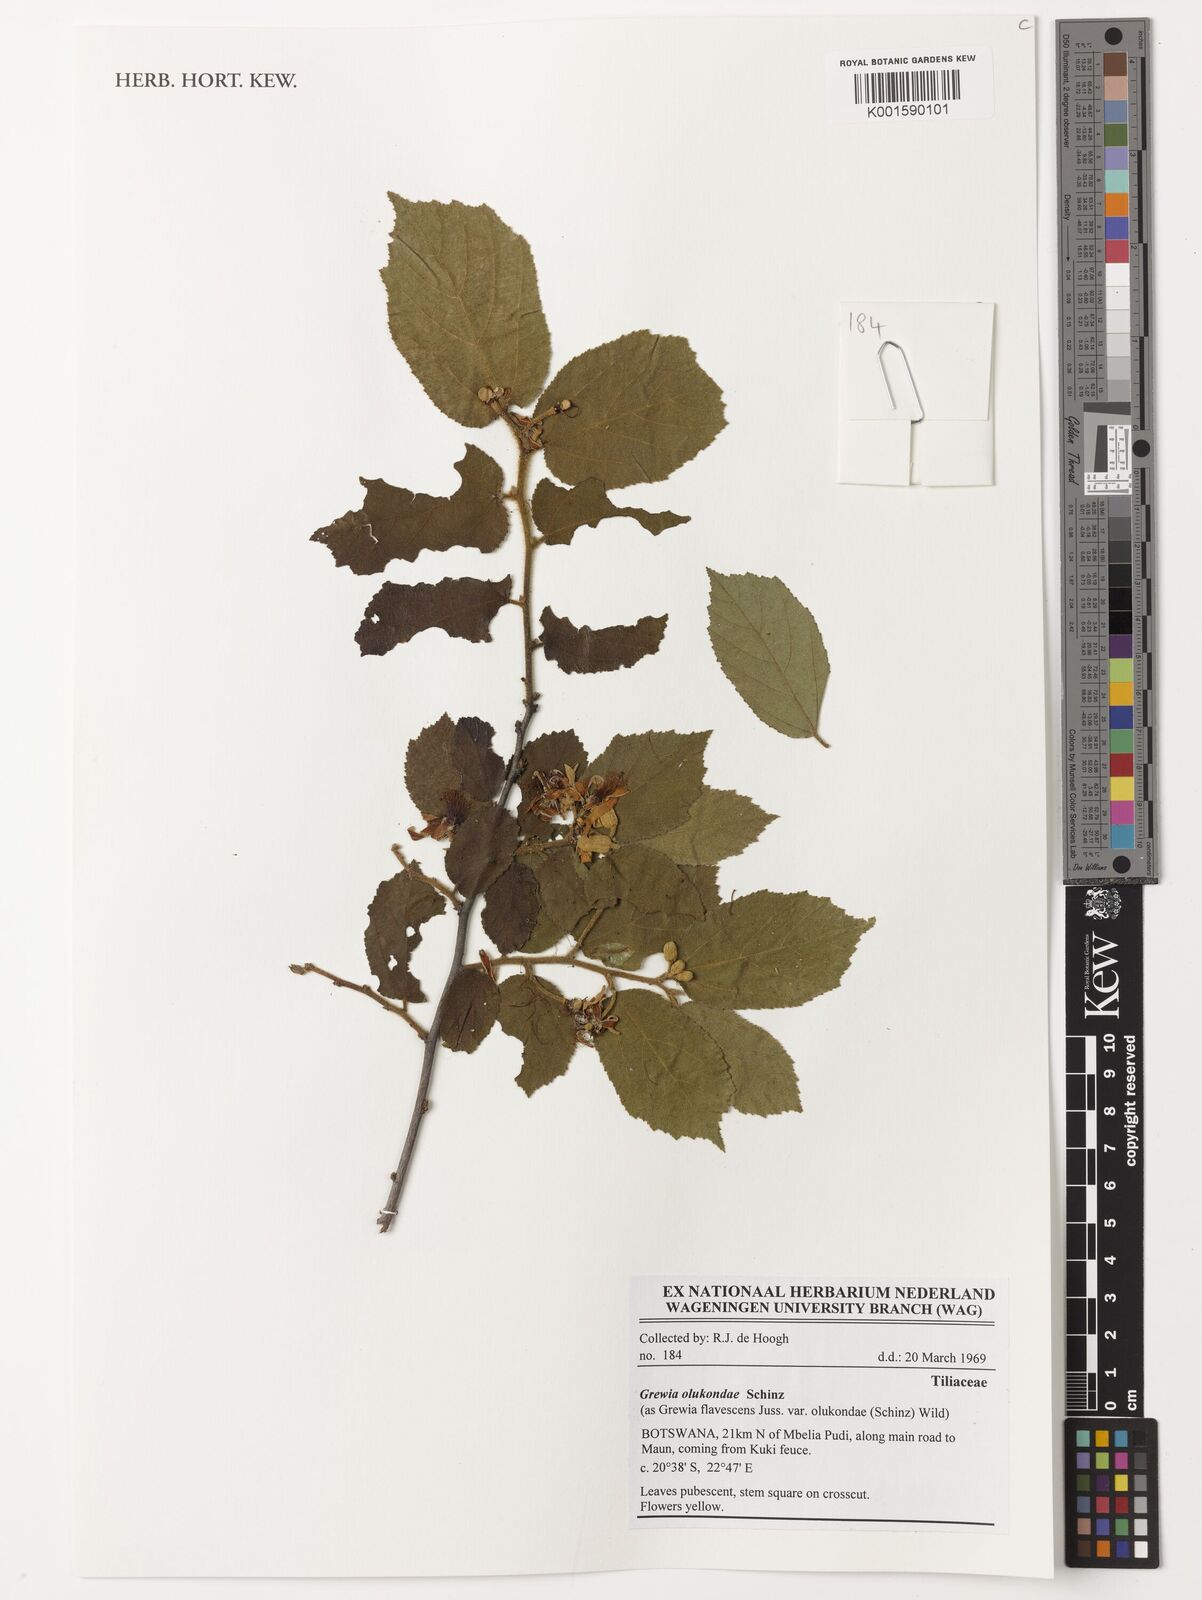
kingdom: Plantae
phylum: Tracheophyta
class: Magnoliopsida
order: Malvales
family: Malvaceae
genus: Grewia
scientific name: Grewia flavescens
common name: Sandpaper raisin
